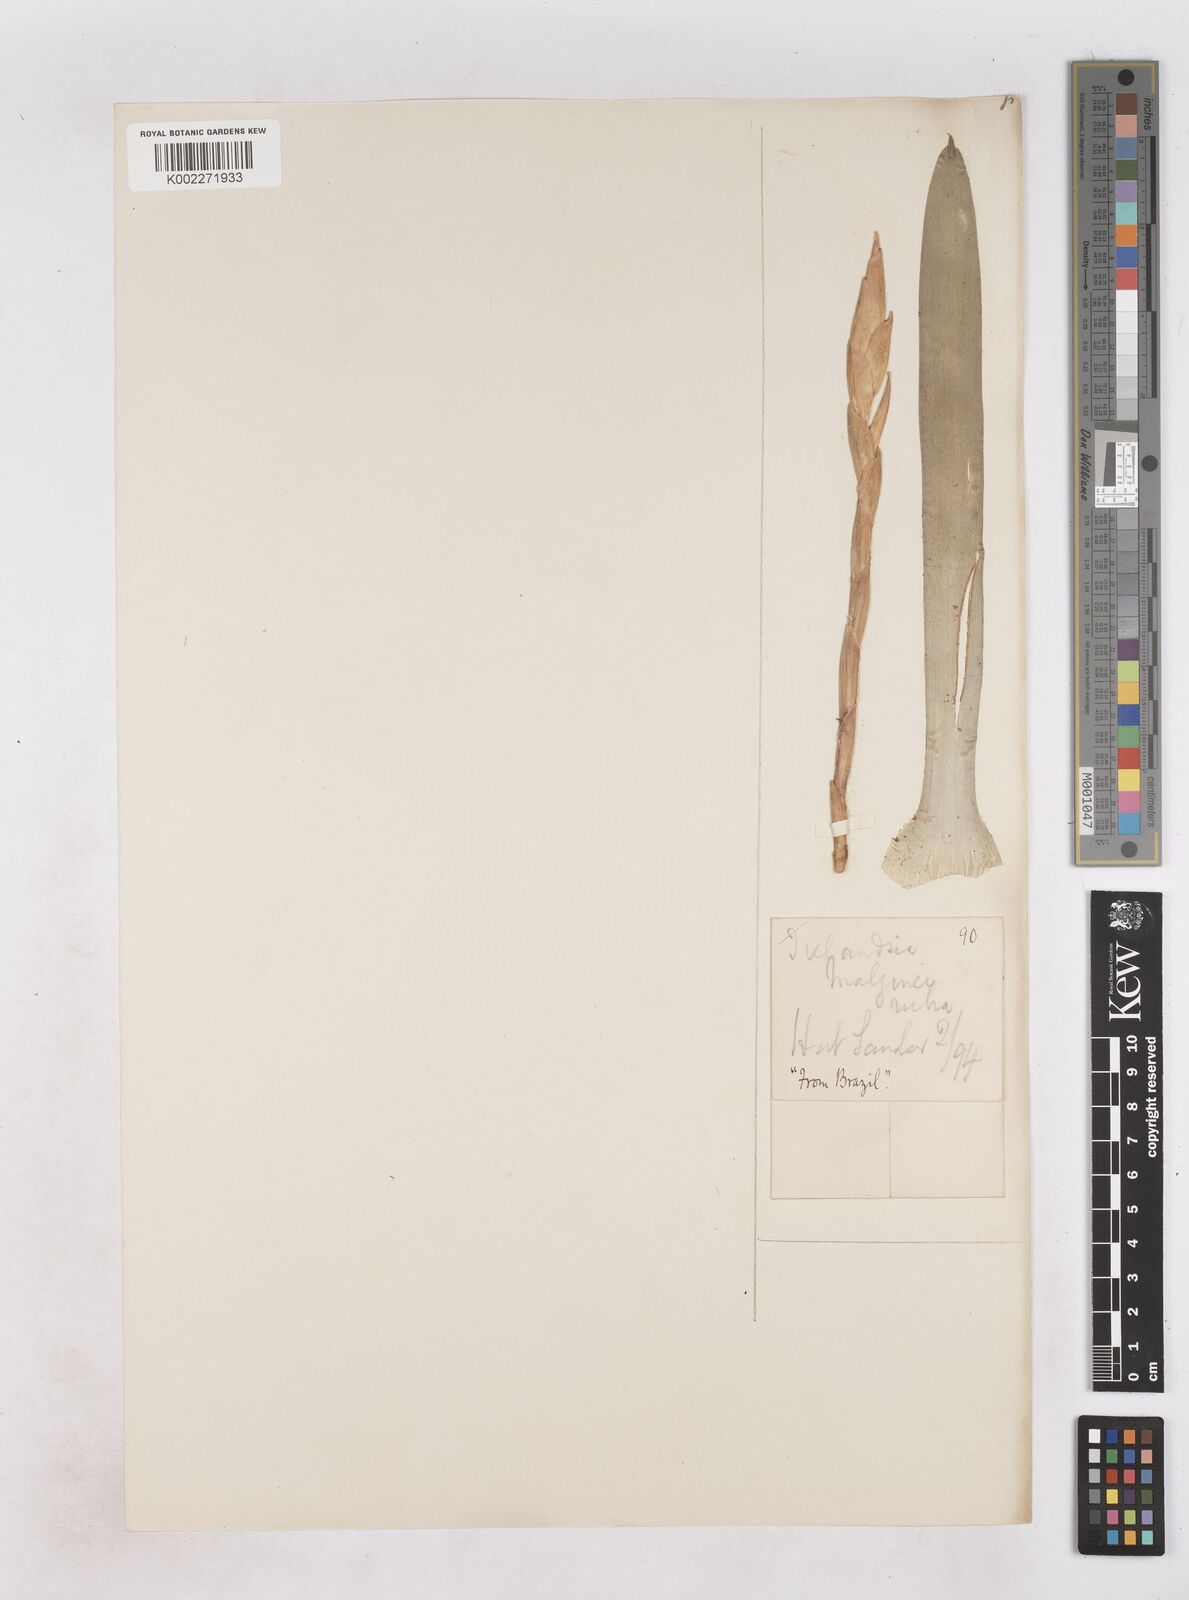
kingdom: Plantae
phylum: Tracheophyta
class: Liliopsida
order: Poales
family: Bromeliaceae
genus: Tillandsia
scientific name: Tillandsia malzinei
